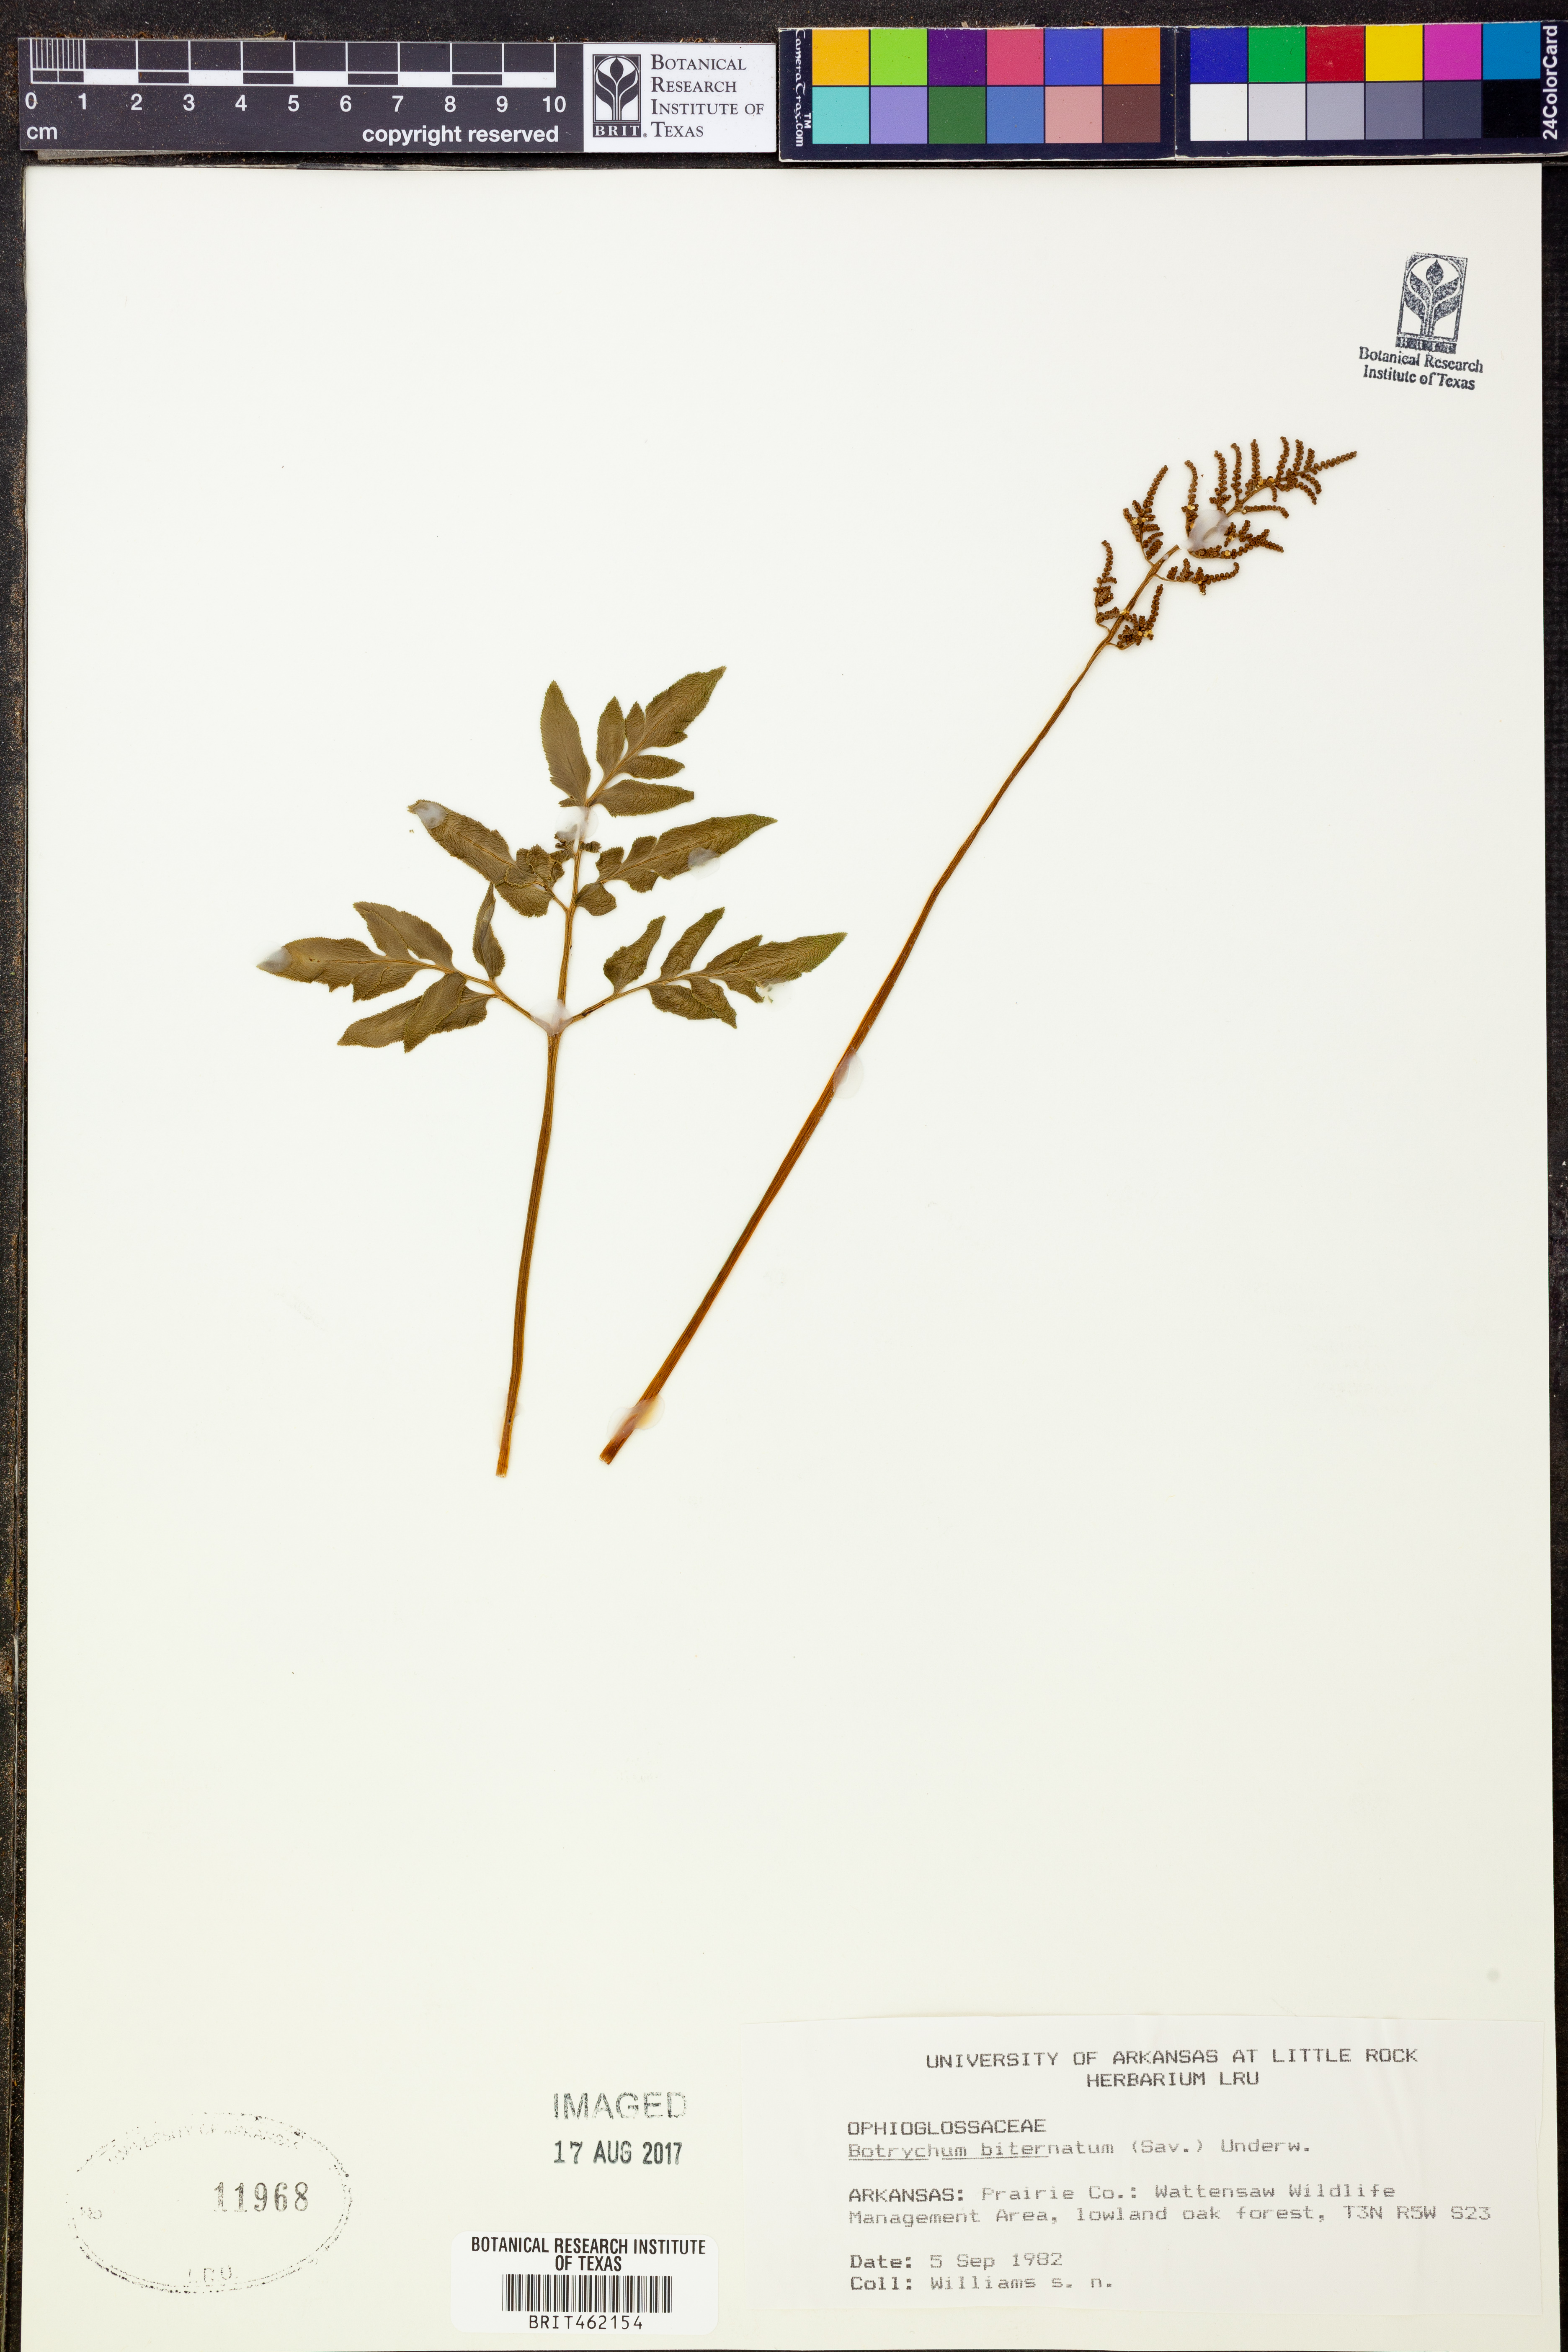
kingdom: Plantae
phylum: Tracheophyta
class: Polypodiopsida
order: Ophioglossales
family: Ophioglossaceae
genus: Sceptridium
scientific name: Sceptridium biternatum
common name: Sparse-lobed grapefern
